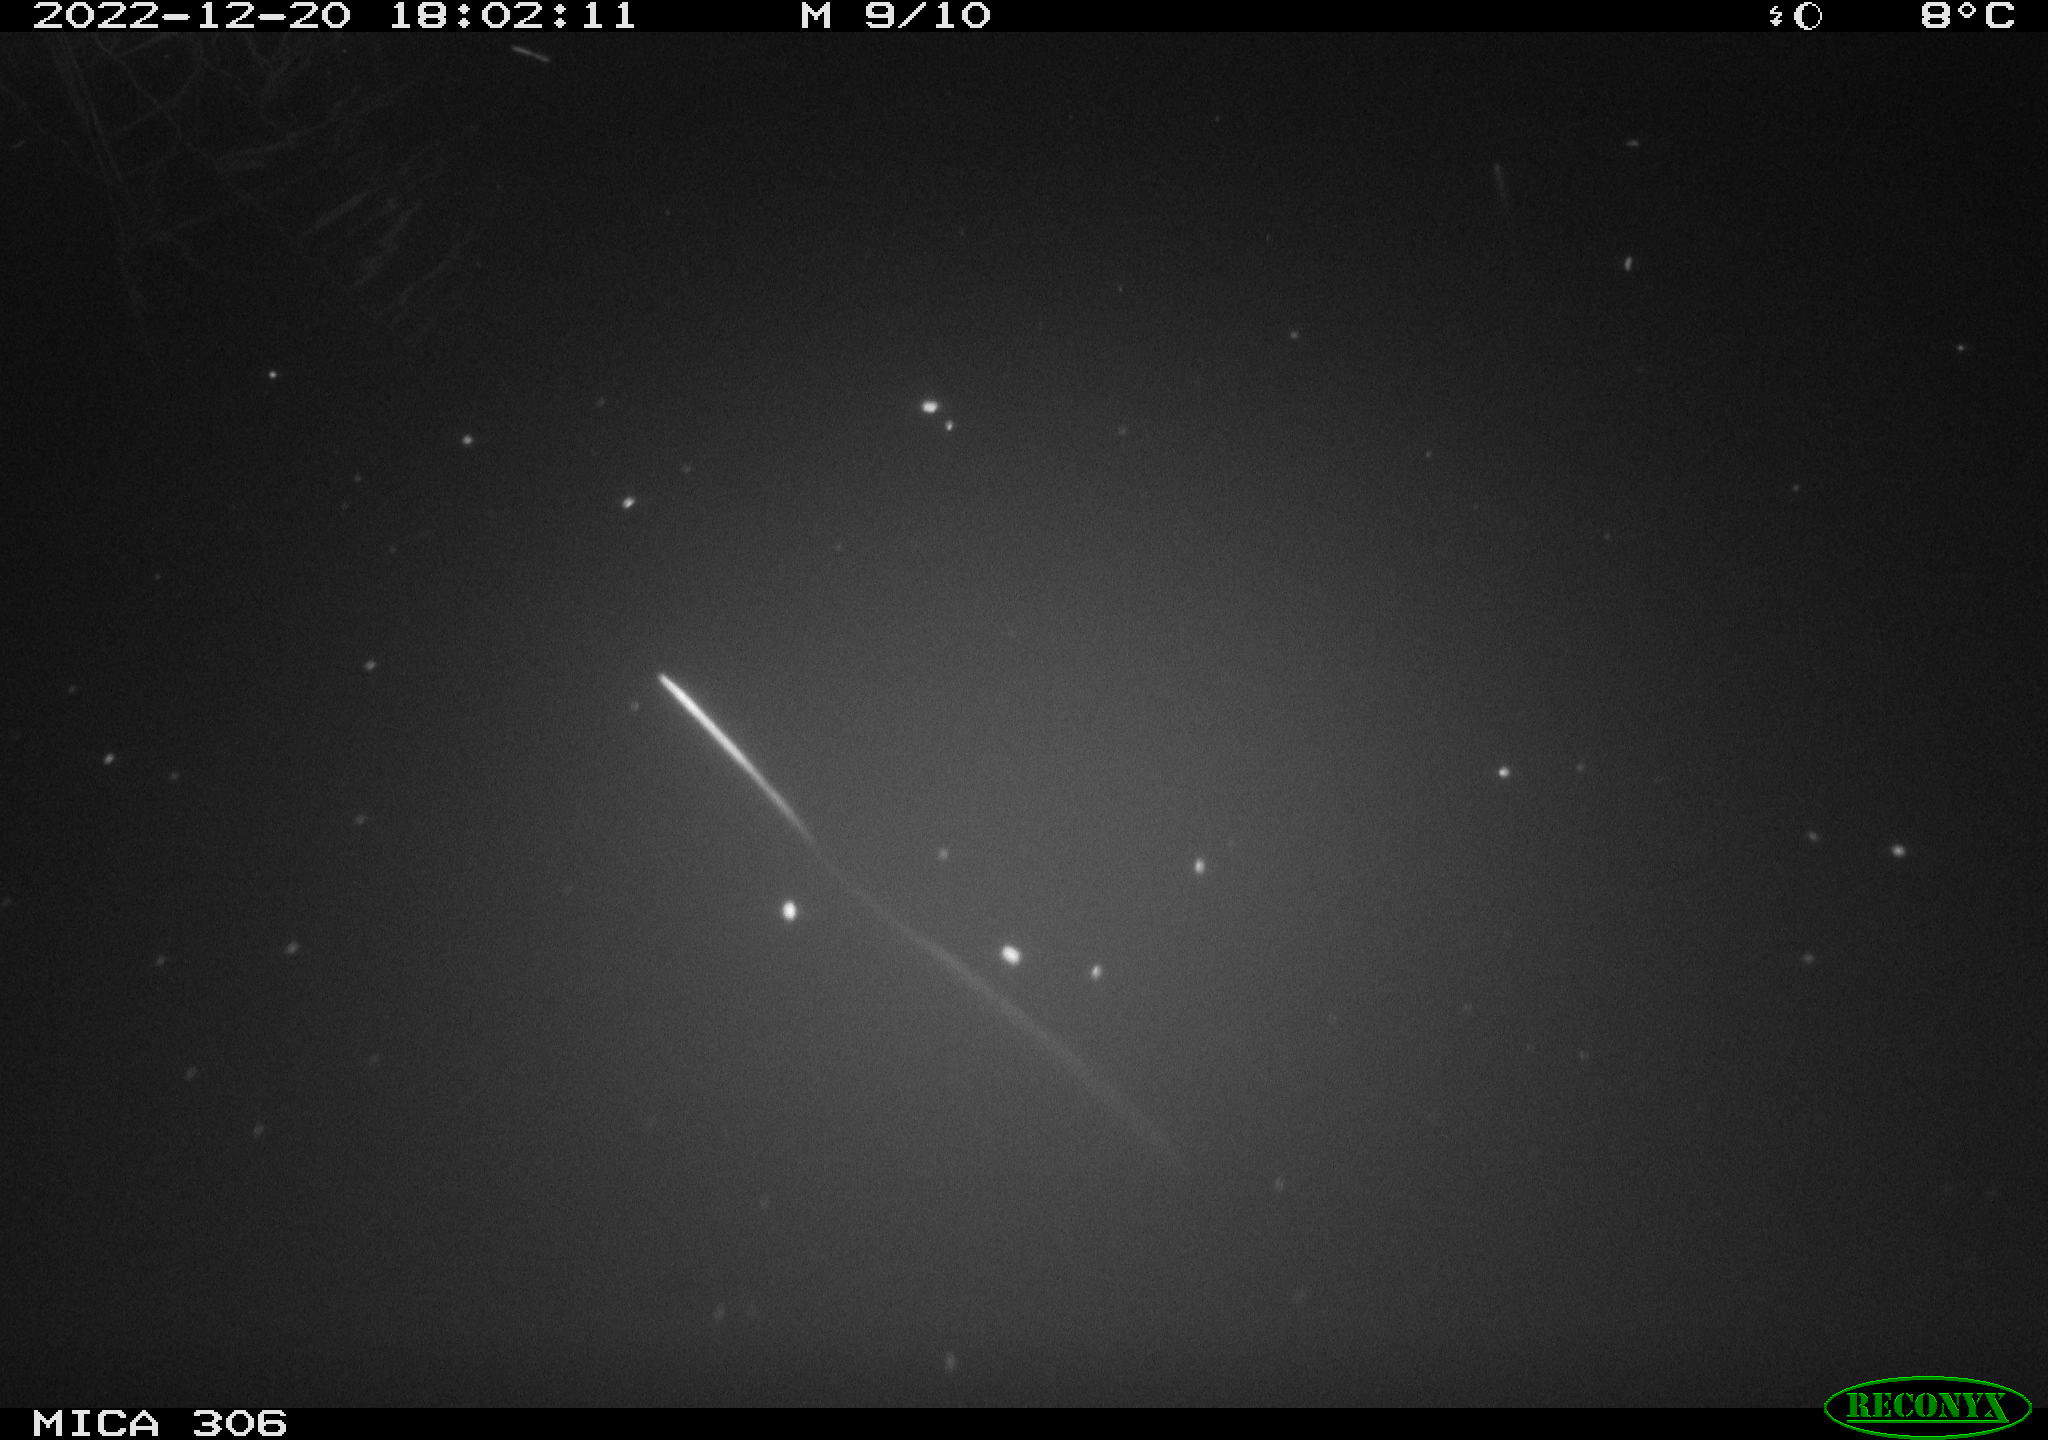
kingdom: Animalia
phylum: Chordata
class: Mammalia
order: Rodentia
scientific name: Rodentia
